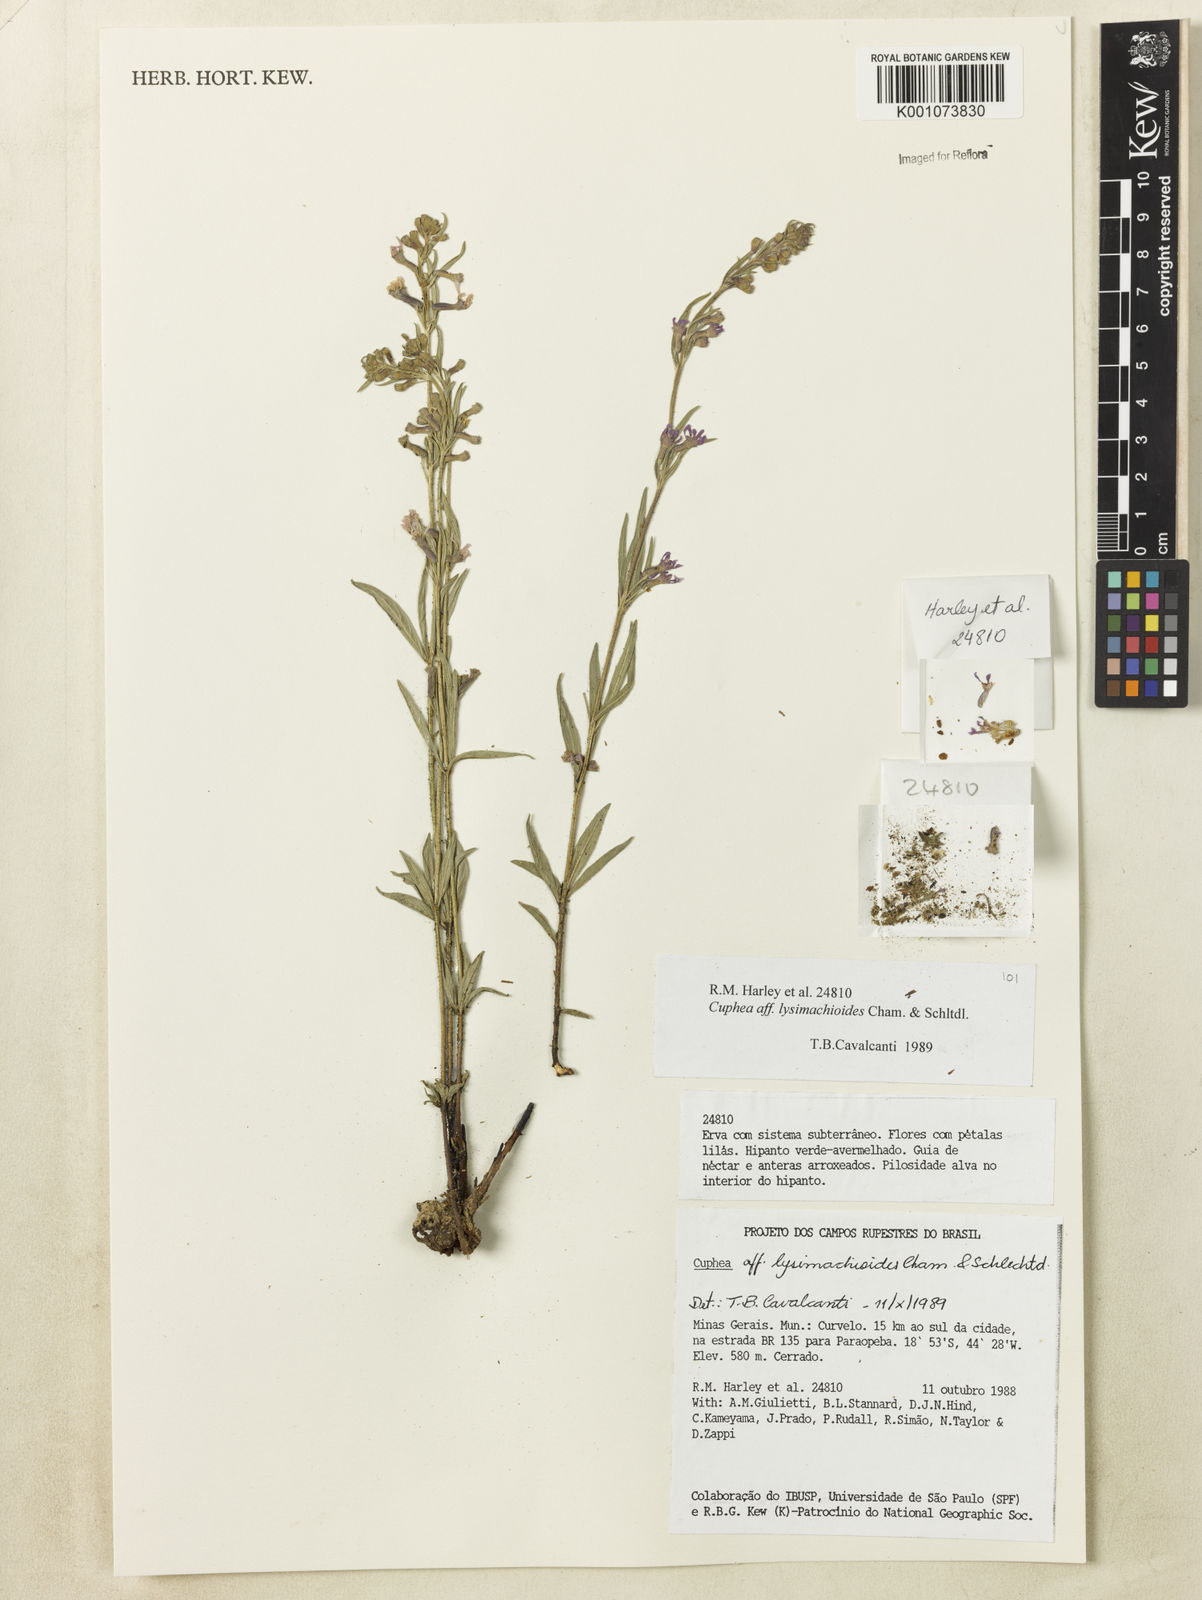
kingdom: Plantae
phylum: Tracheophyta
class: Magnoliopsida
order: Myrtales
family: Lythraceae
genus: Cuphea
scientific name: Cuphea lysimachioides
